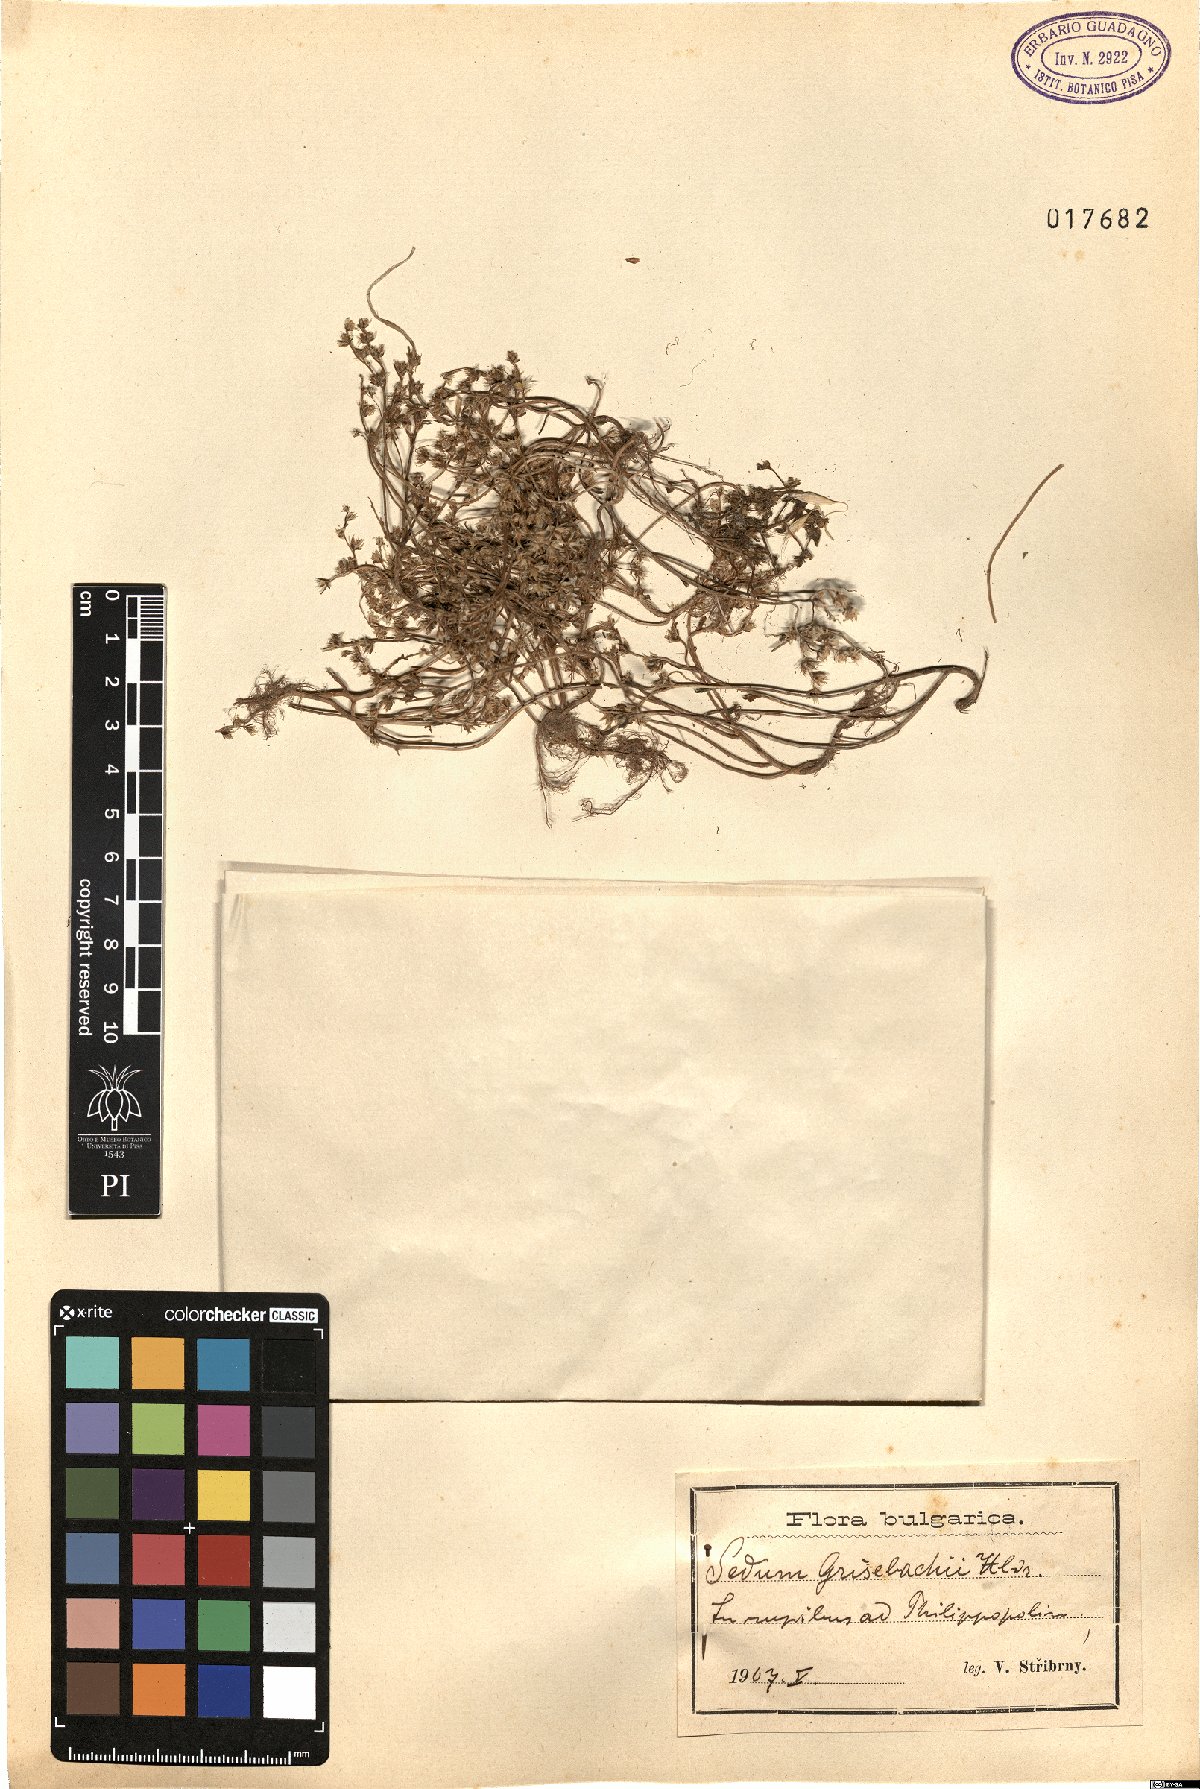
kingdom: Plantae
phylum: Tracheophyta
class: Magnoliopsida
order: Saxifragales
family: Crassulaceae
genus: Sedum
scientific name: Sedum grisebachii
